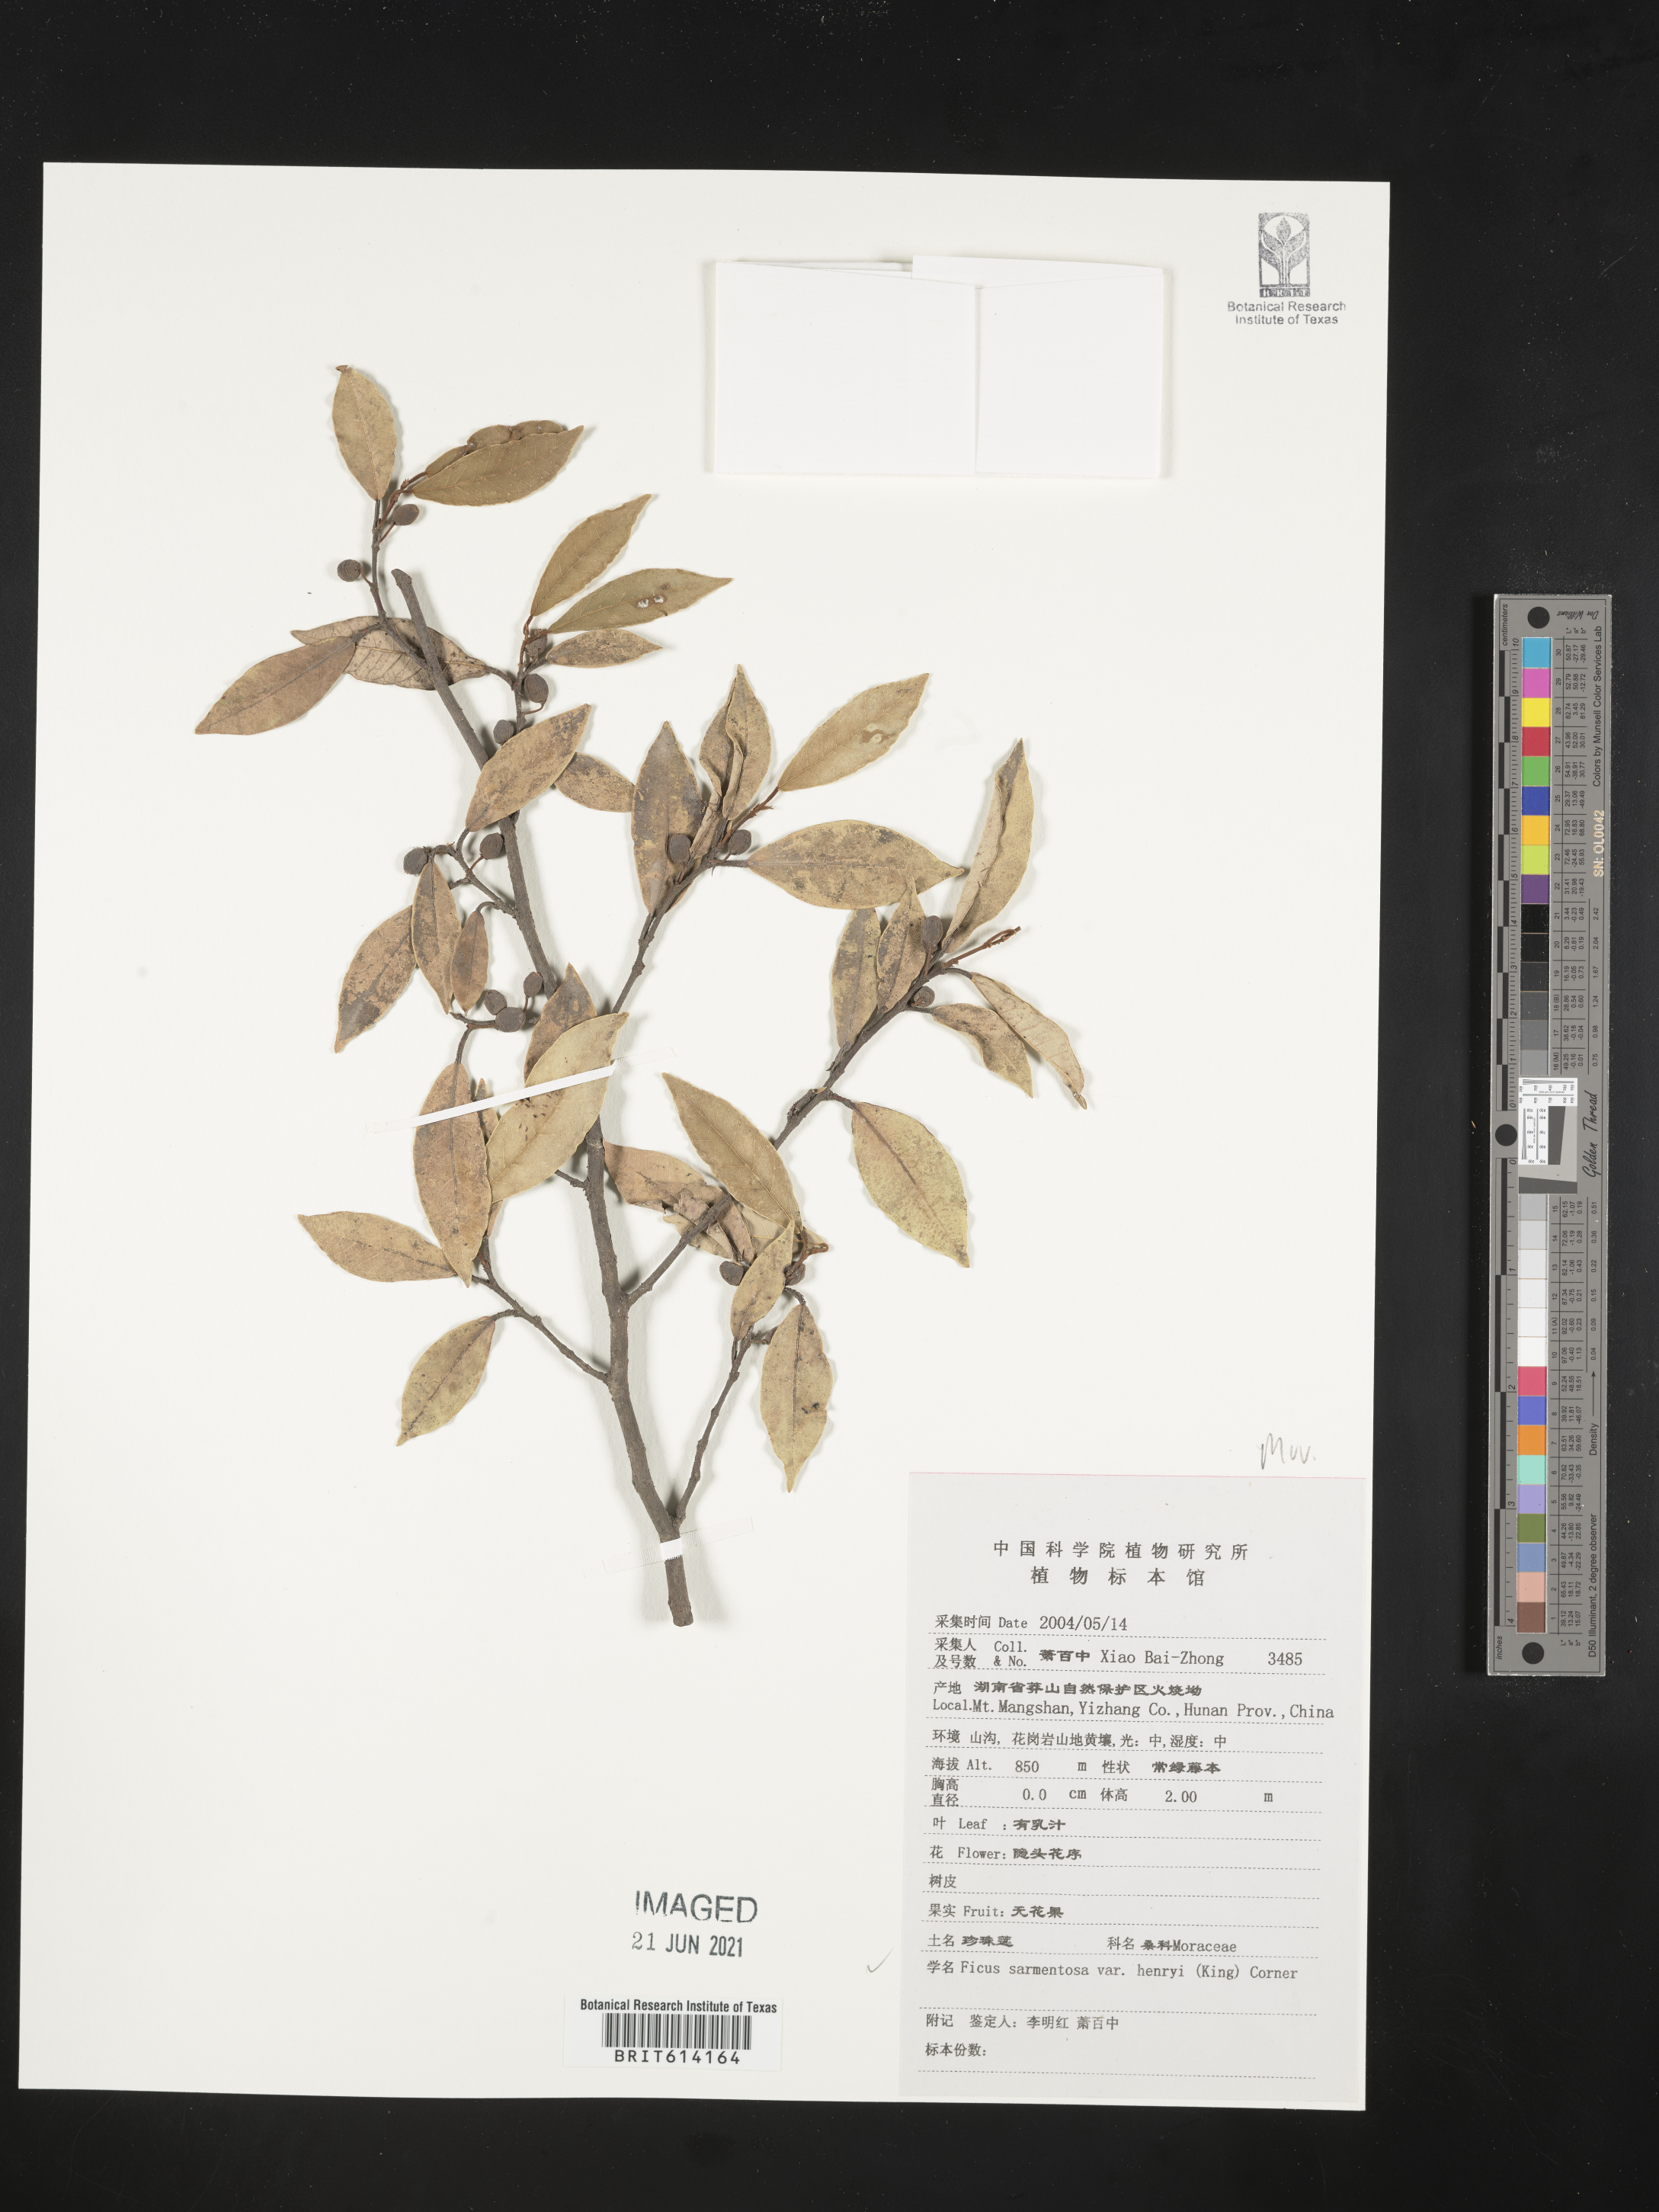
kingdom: Plantae
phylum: Tracheophyta
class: Magnoliopsida
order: Rosales
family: Moraceae
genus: Ficus
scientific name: Ficus sarmentosa
